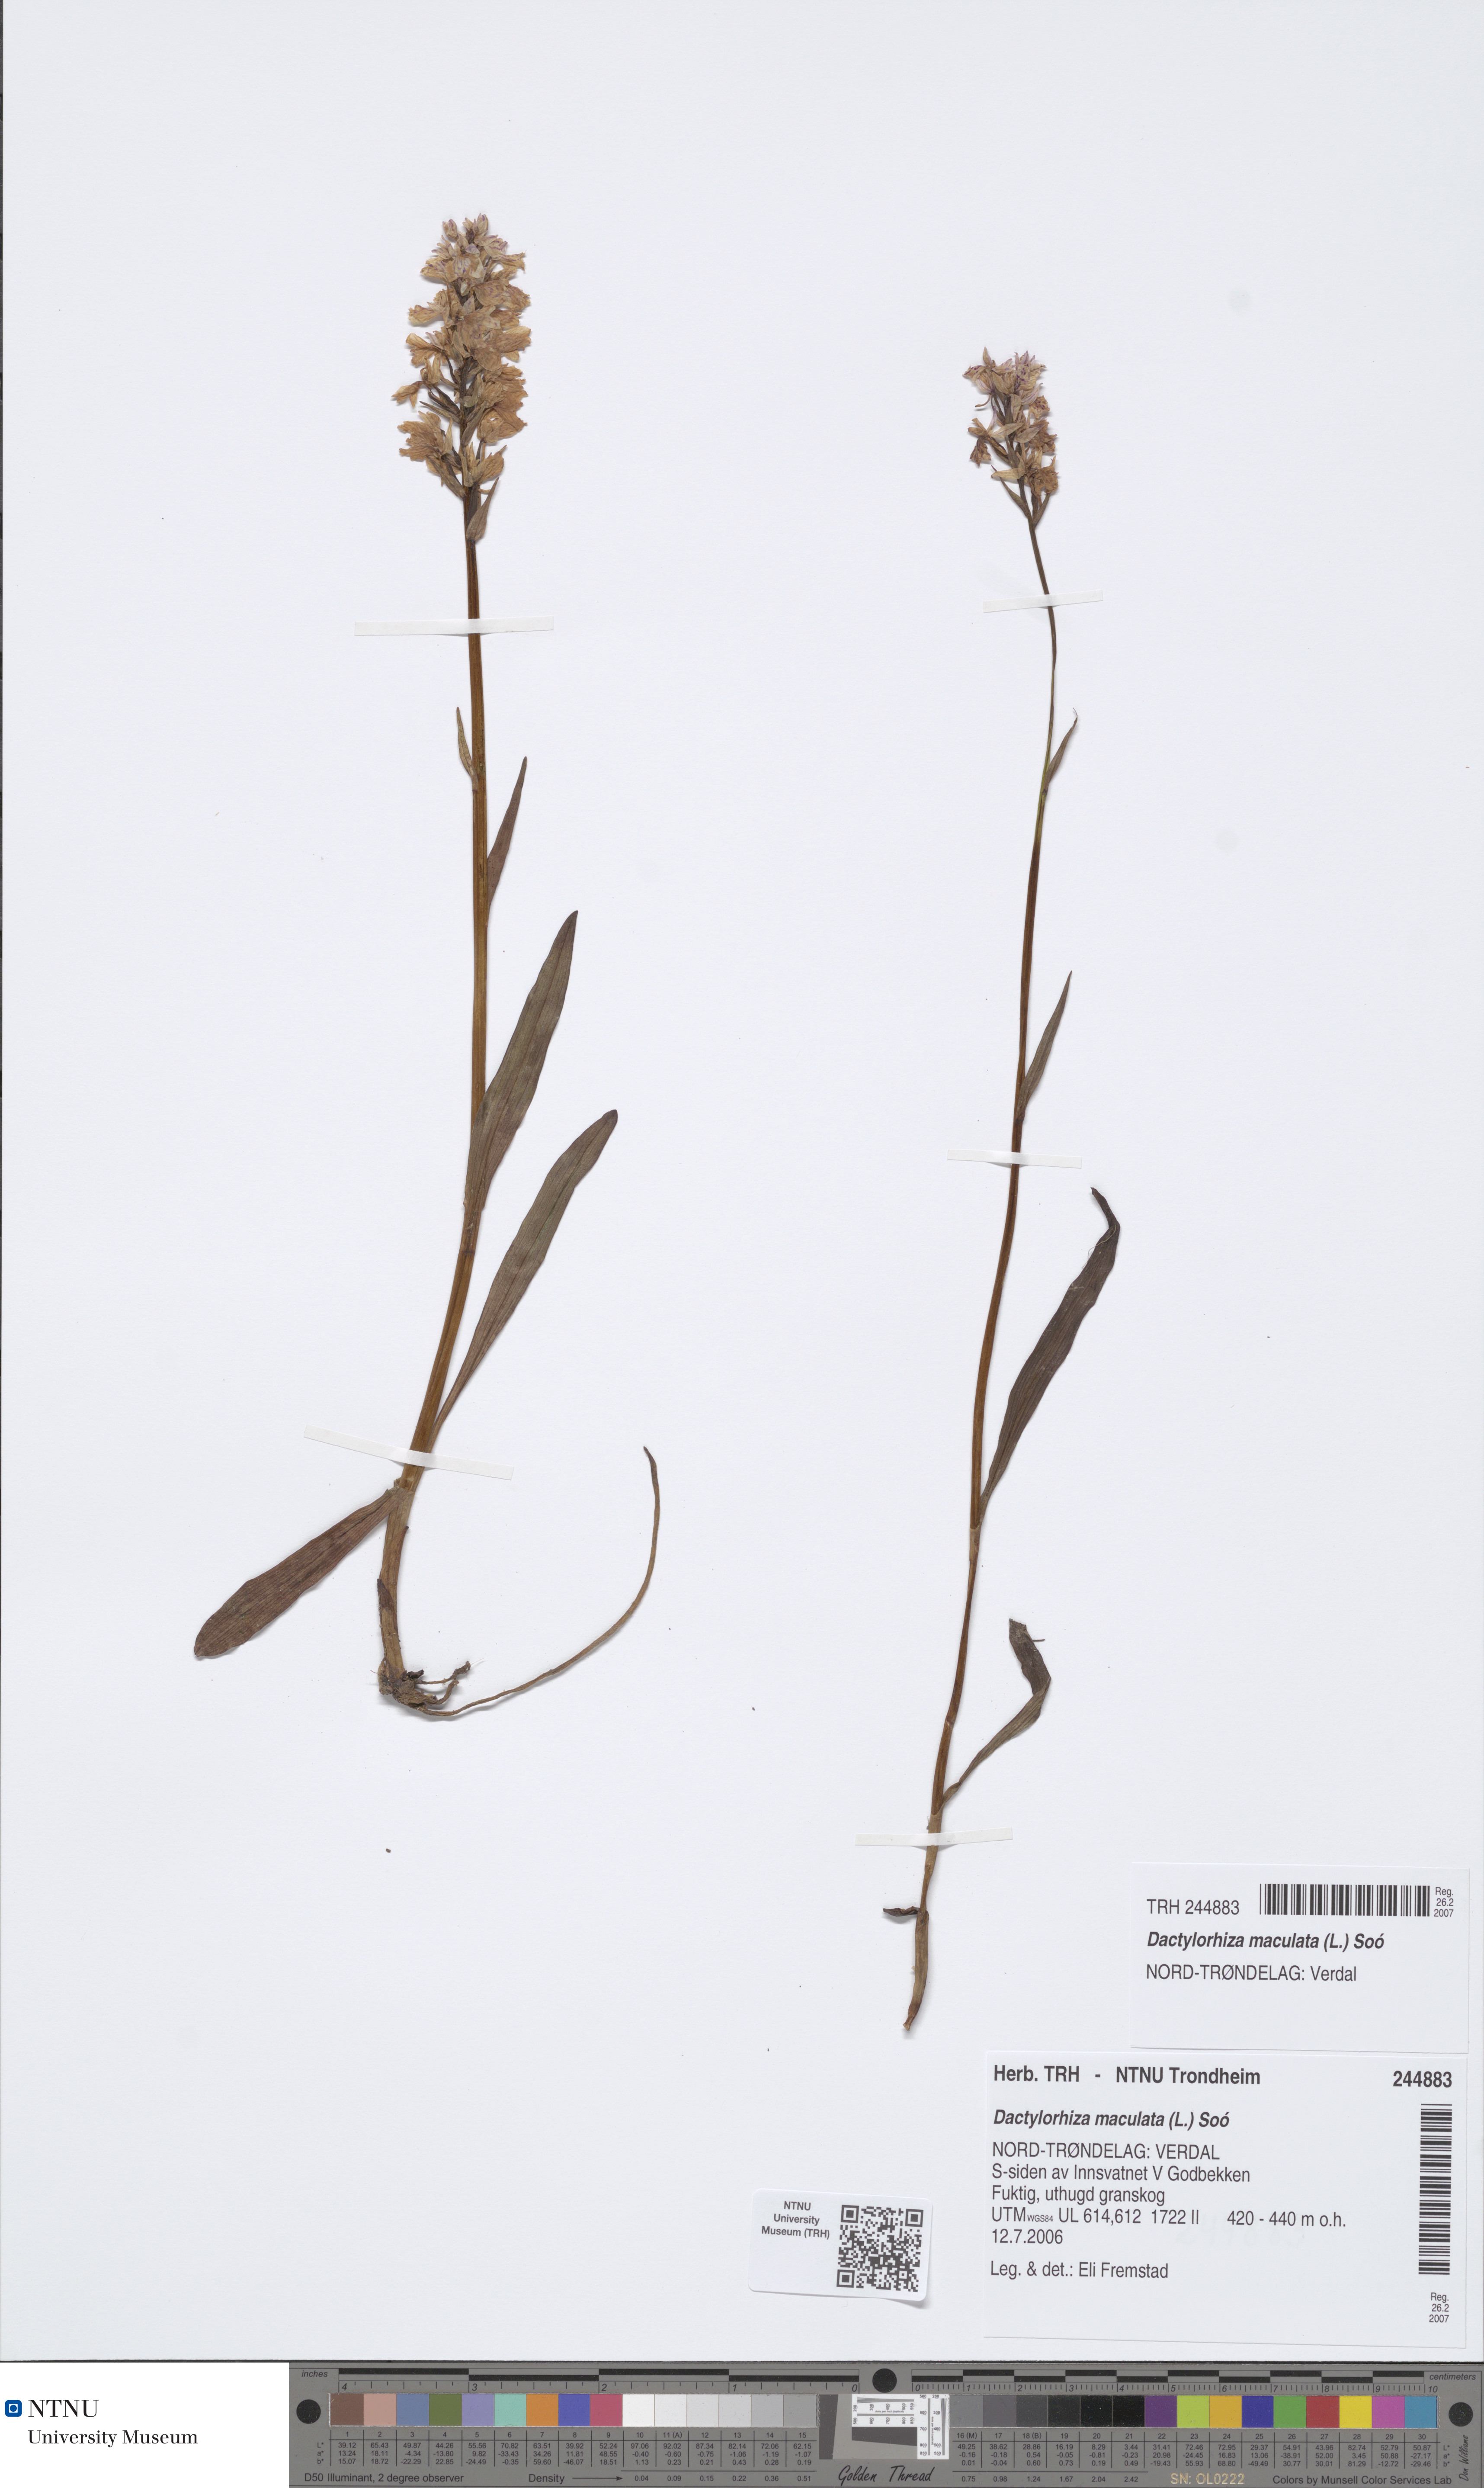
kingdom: Plantae
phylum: Tracheophyta
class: Liliopsida
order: Asparagales
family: Orchidaceae
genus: Dactylorhiza
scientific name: Dactylorhiza maculata
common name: Heath spotted-orchid
